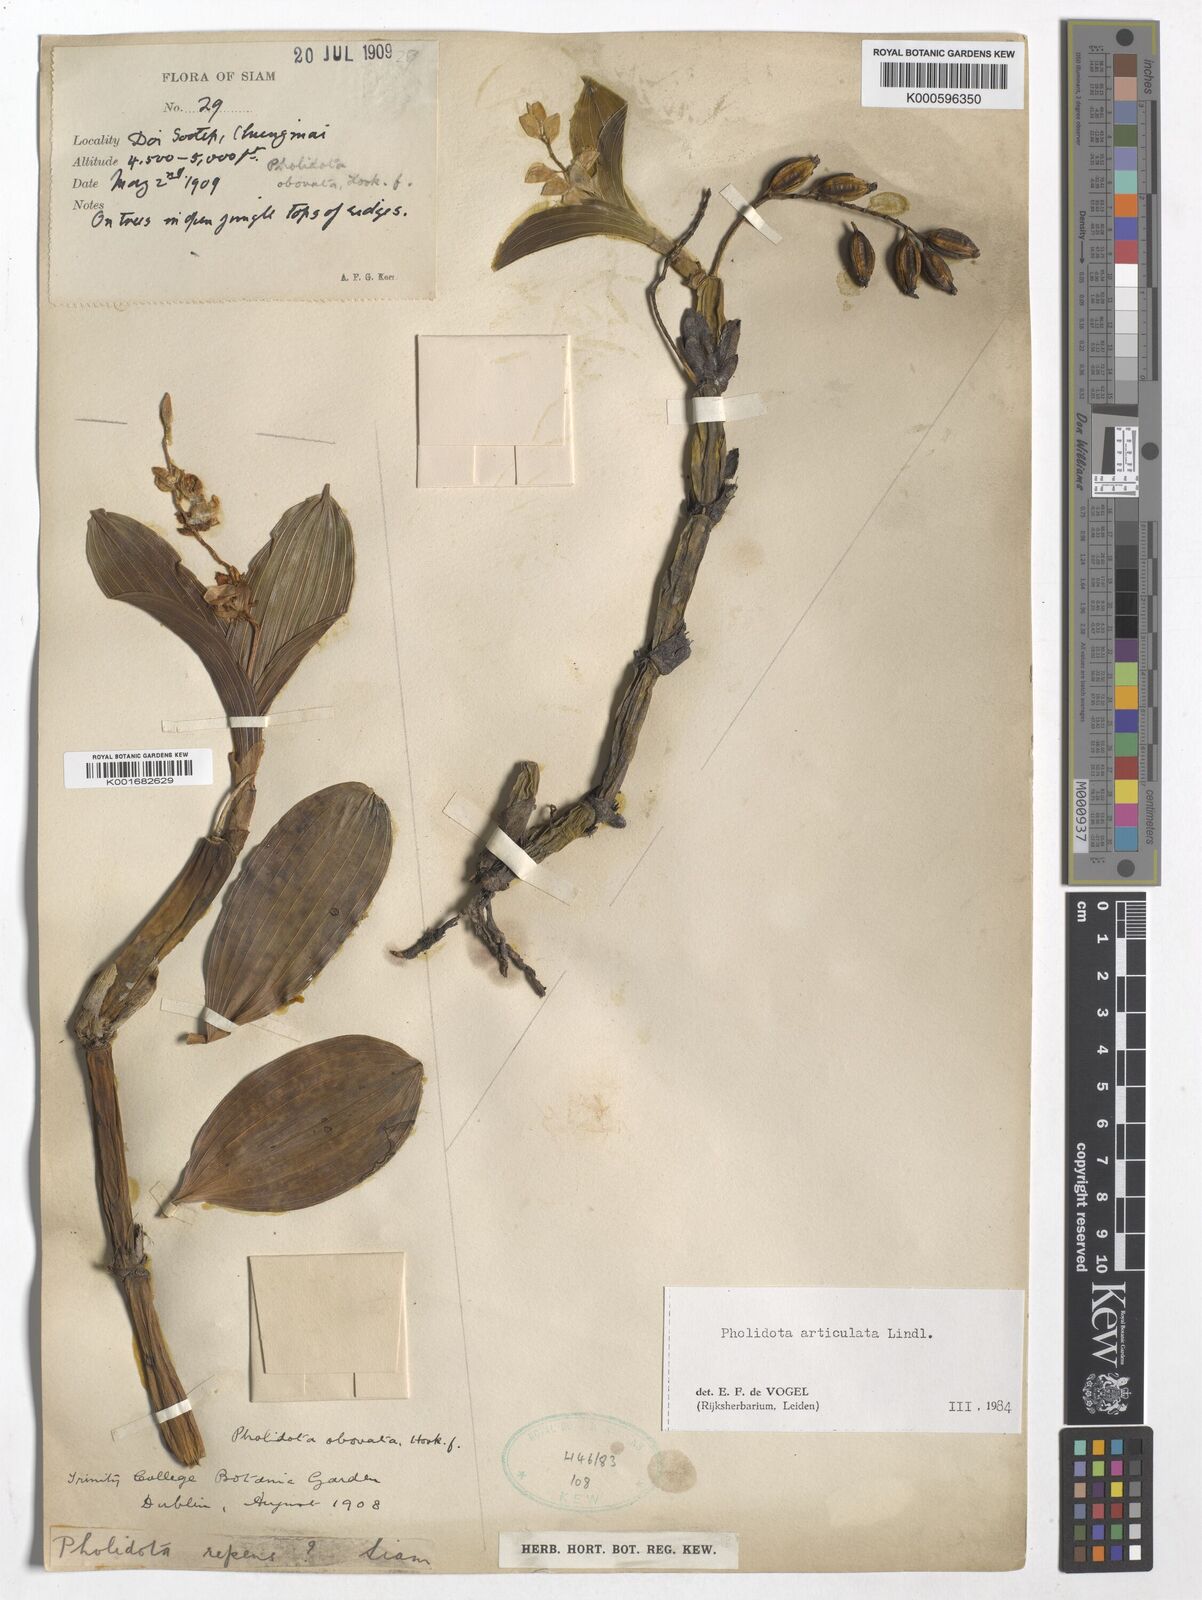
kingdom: Plantae
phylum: Tracheophyta
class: Liliopsida
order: Asparagales
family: Orchidaceae
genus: Coelogyne
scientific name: Coelogyne articulata
